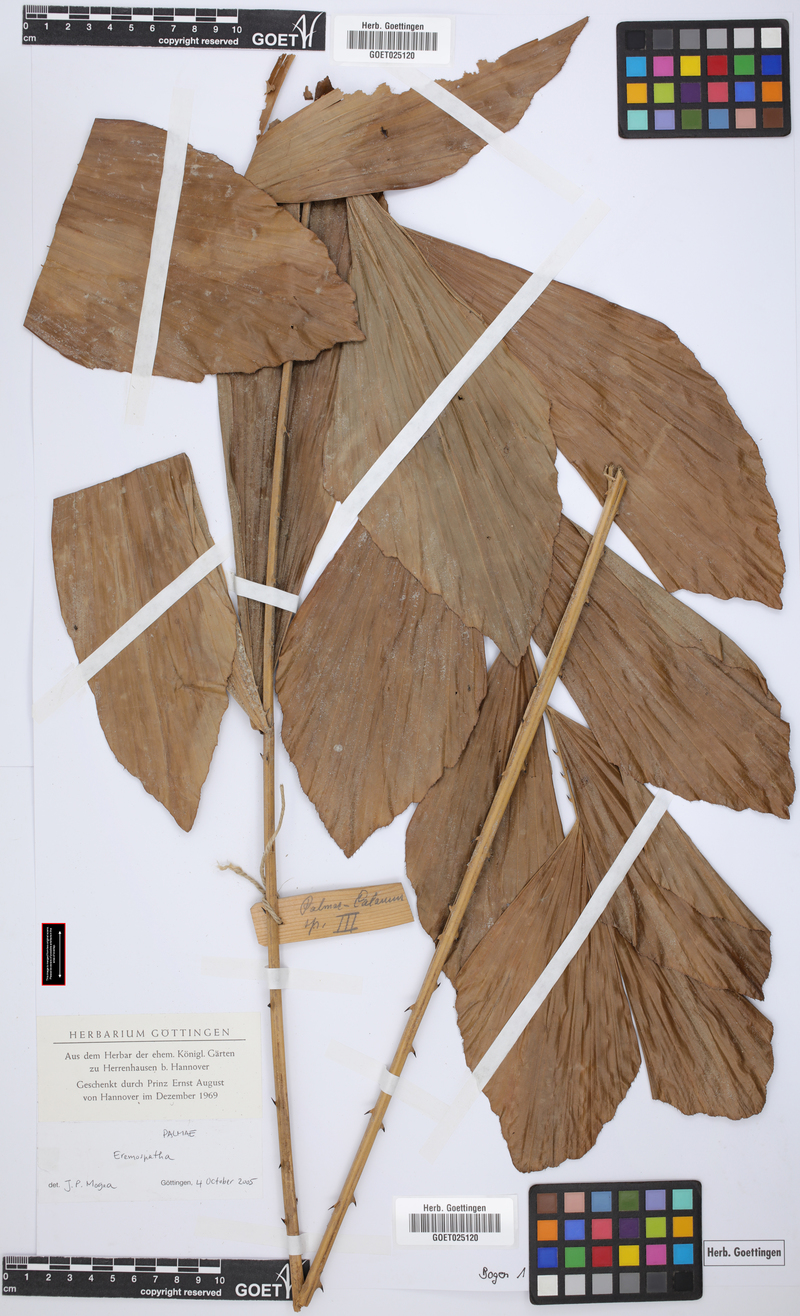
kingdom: Plantae
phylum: Tracheophyta
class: Liliopsida
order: Arecales
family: Arecaceae
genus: Eremospatha
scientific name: Eremospatha
